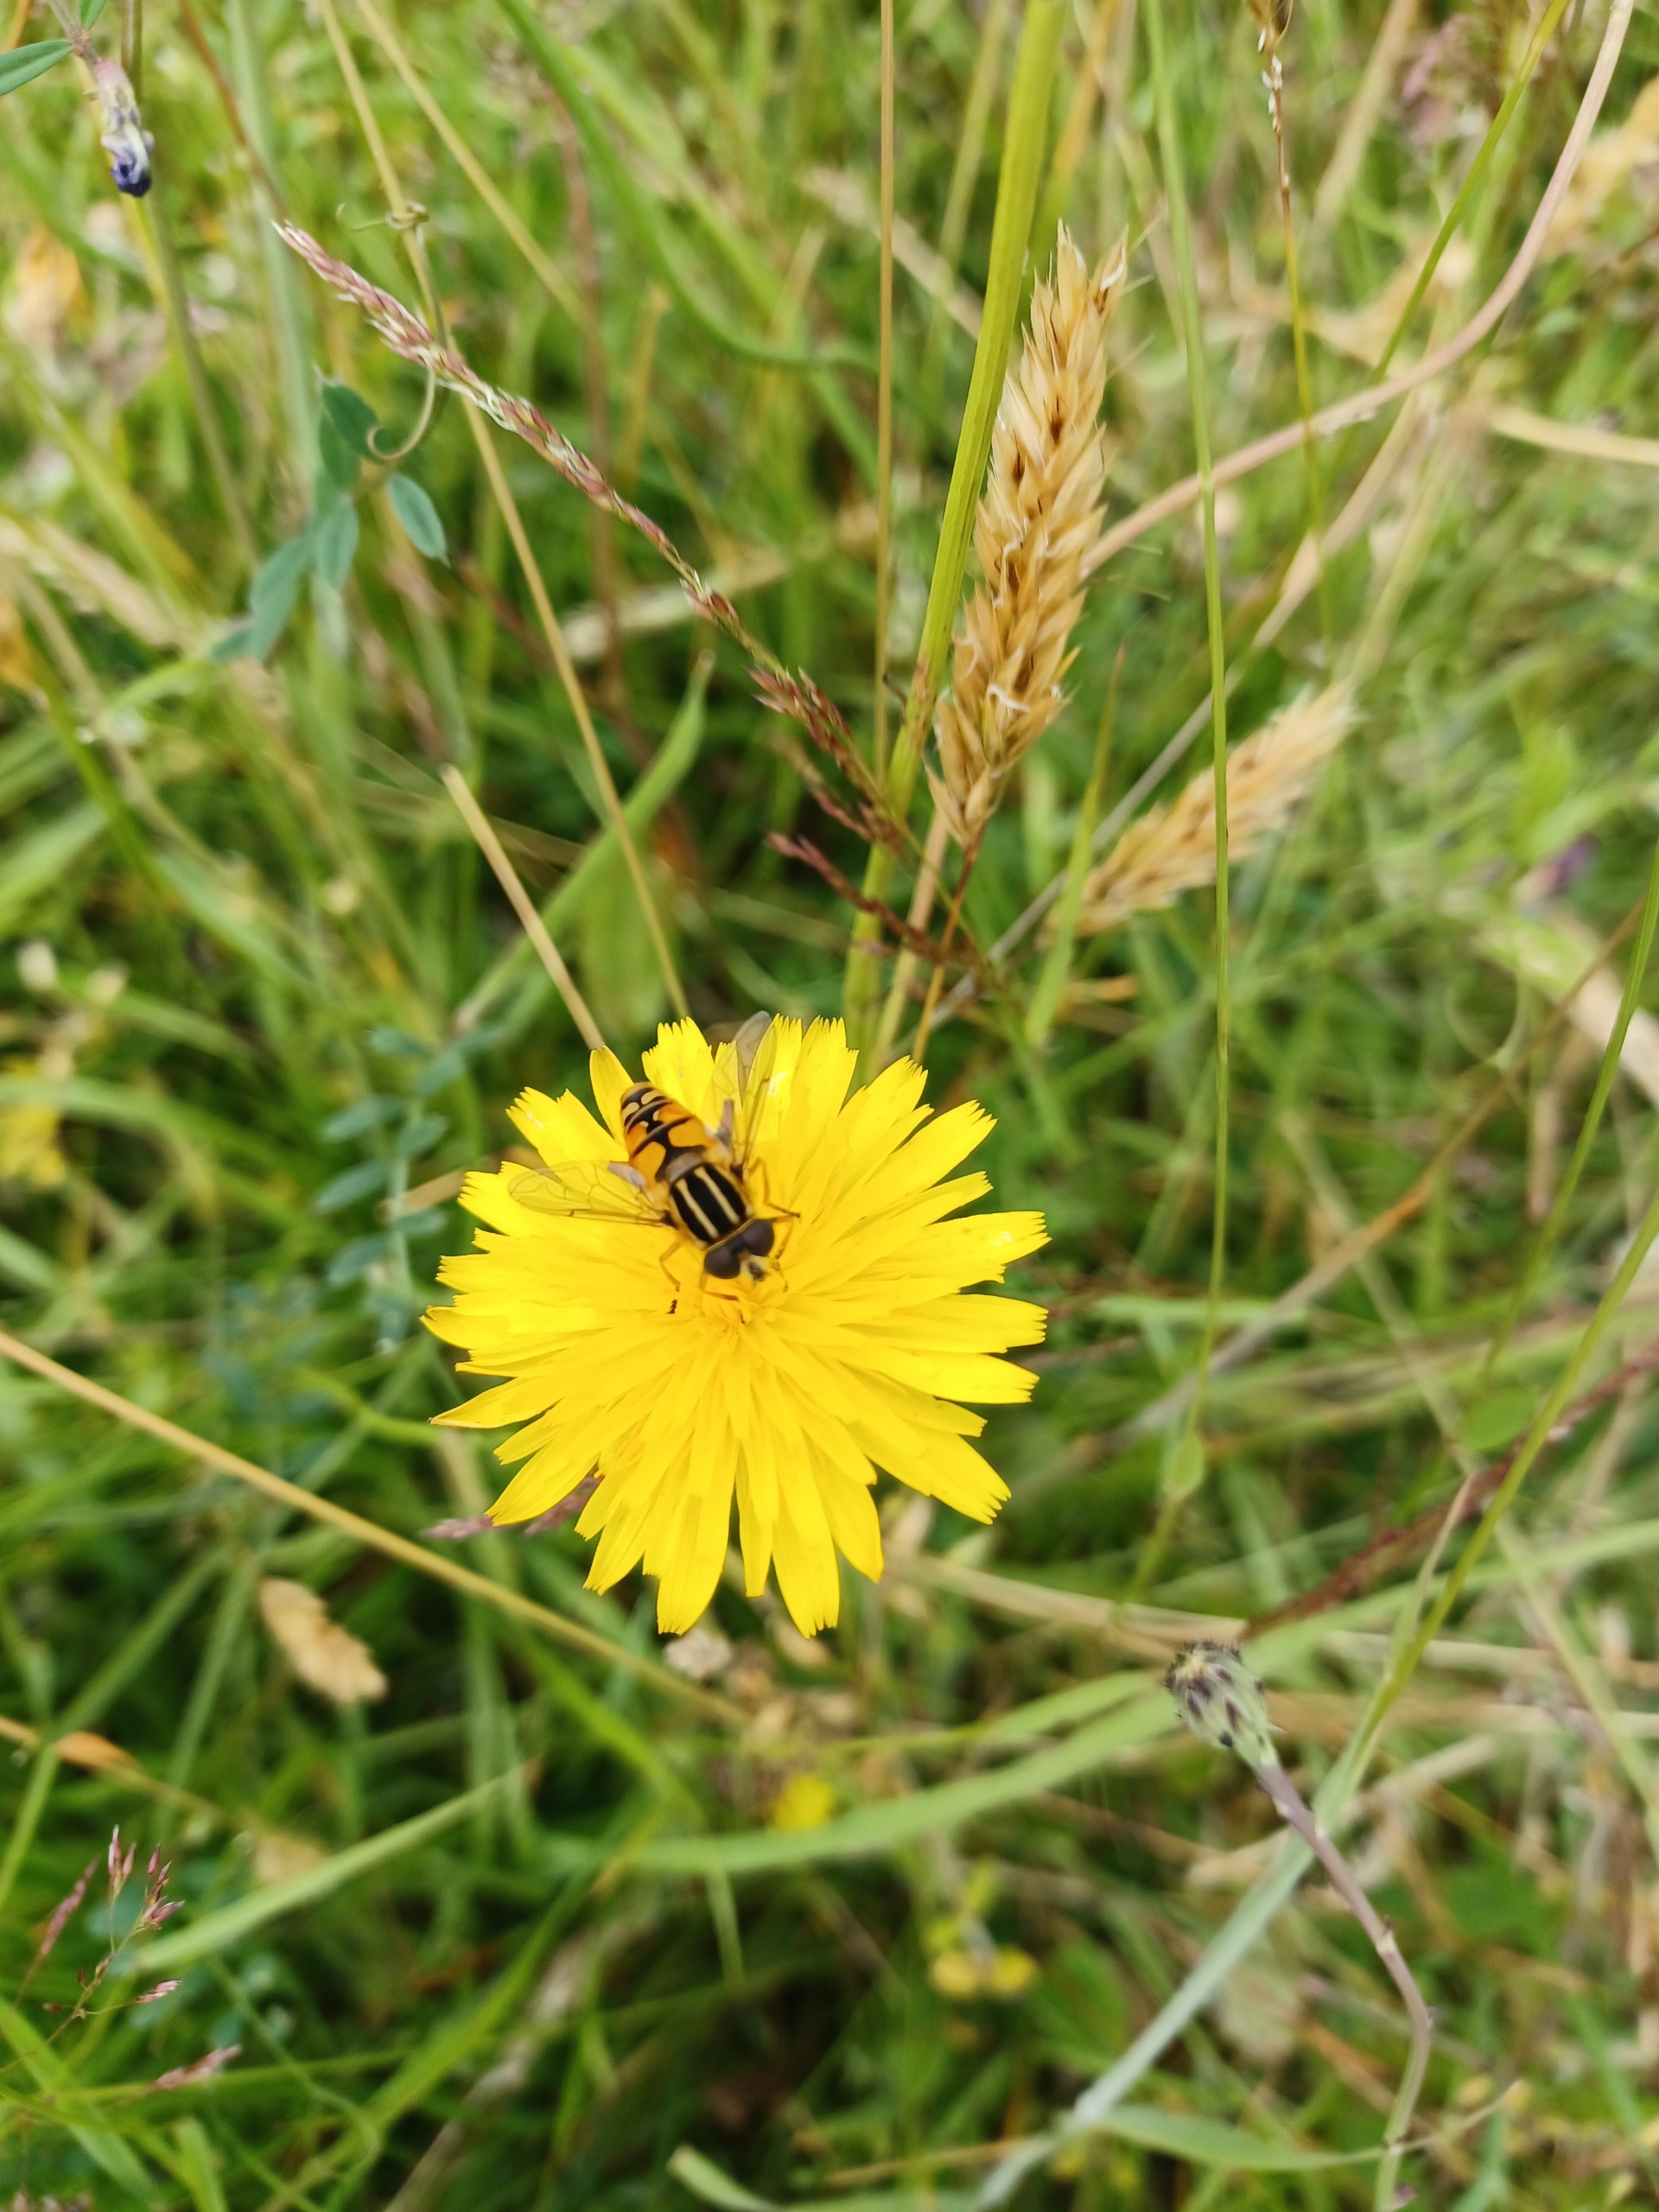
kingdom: Animalia
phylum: Arthropoda
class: Insecta
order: Diptera
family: Syrphidae
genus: Helophilus
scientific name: Helophilus pendulus
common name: Almindelig sumpsvirreflue
